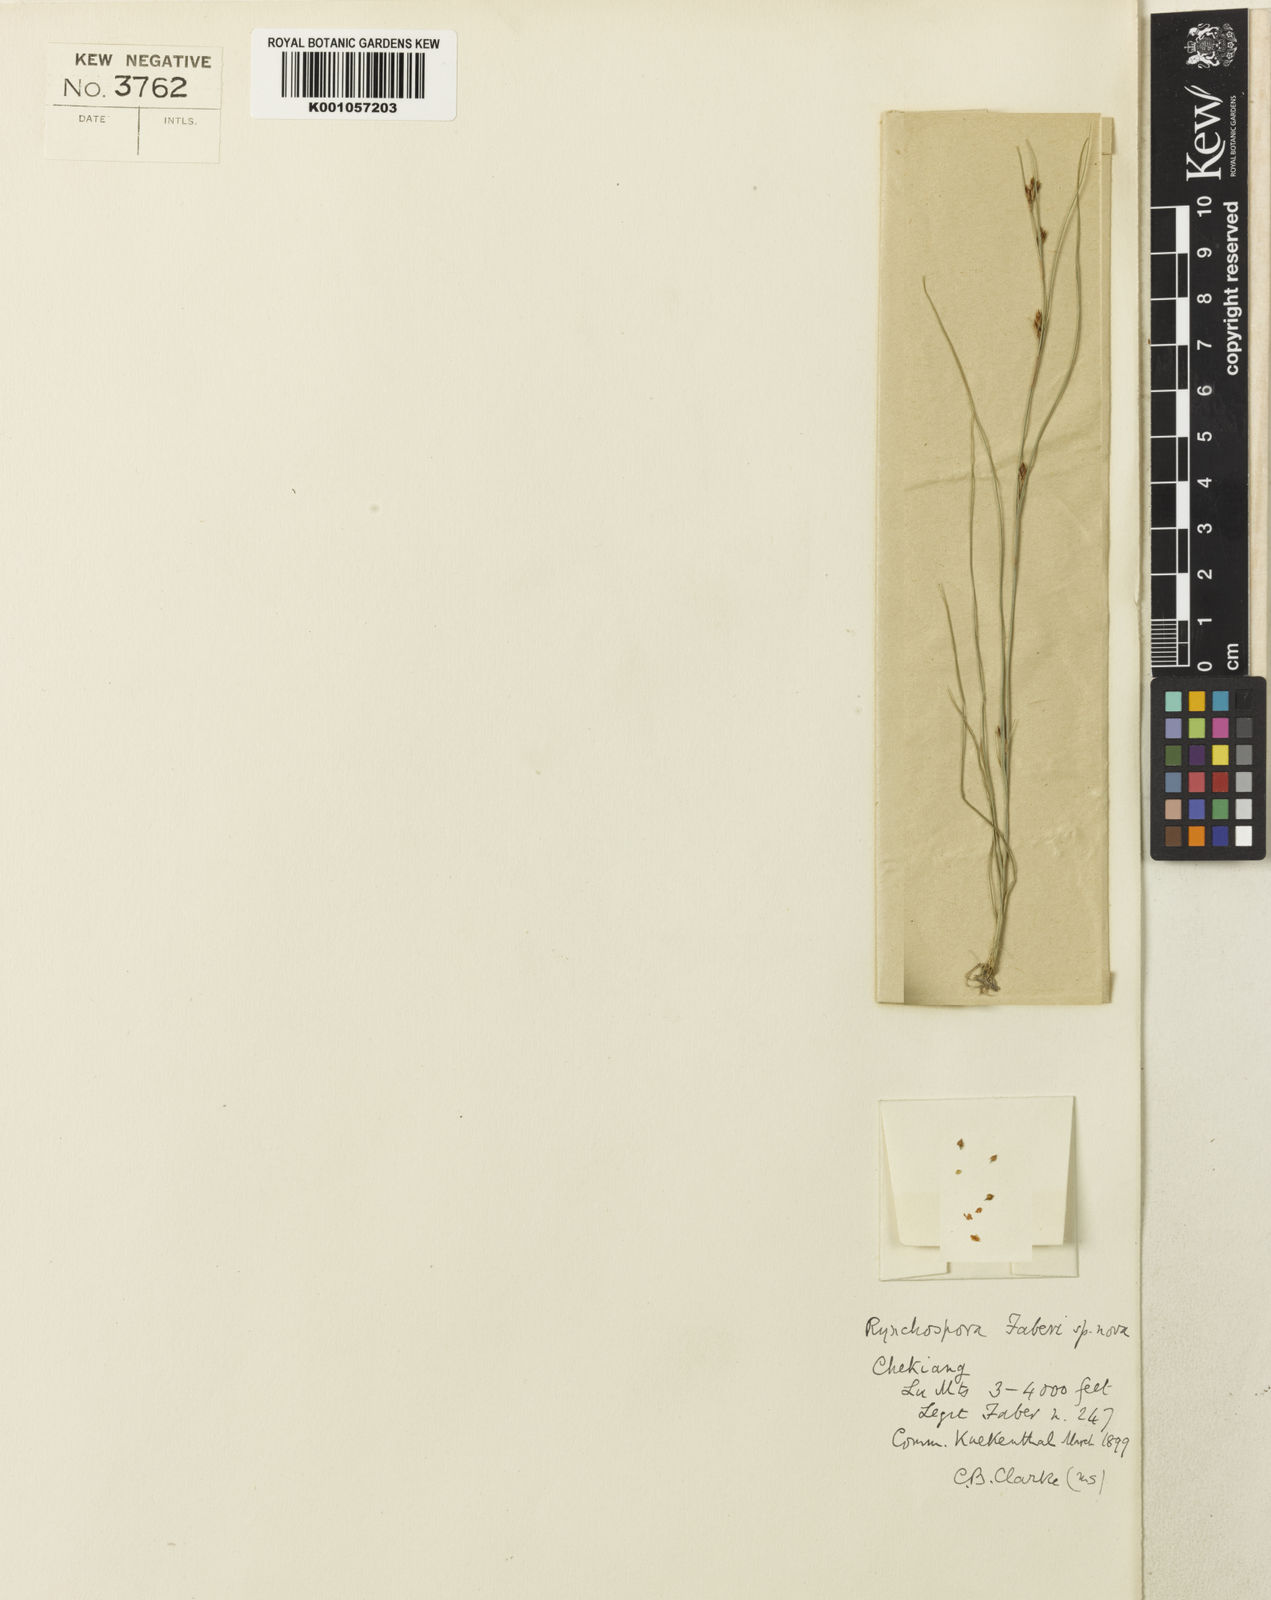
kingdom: Plantae
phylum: Tracheophyta
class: Liliopsida
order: Poales
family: Cyperaceae
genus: Rhynchospora
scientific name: Rhynchospora faberi
